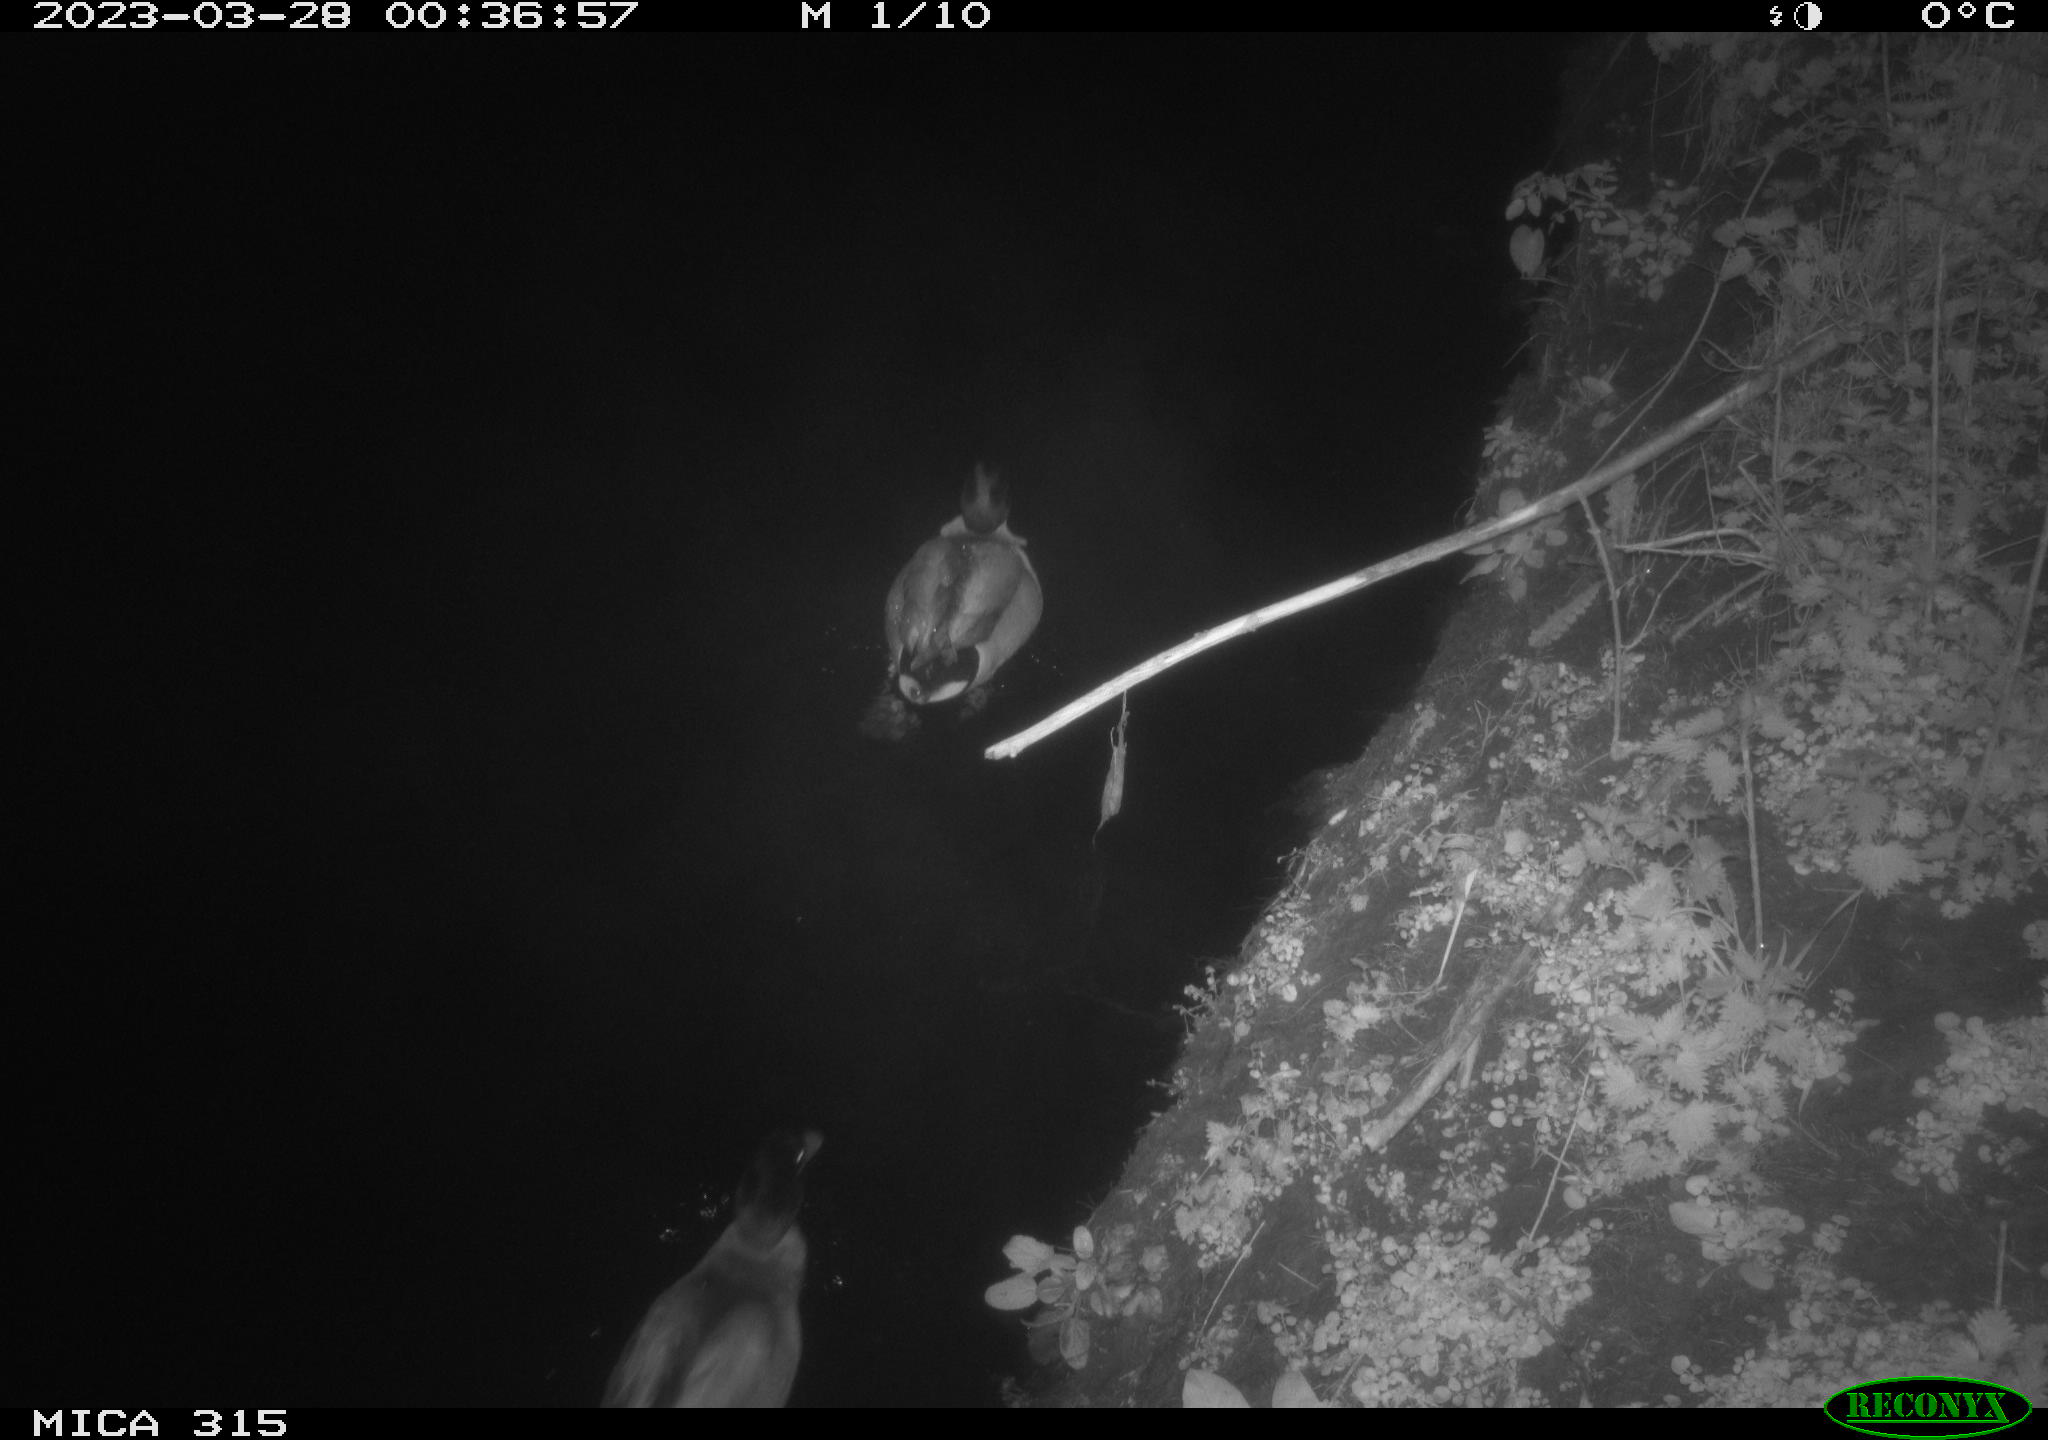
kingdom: Animalia
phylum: Chordata
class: Aves
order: Anseriformes
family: Anatidae
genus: Anas
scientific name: Anas
